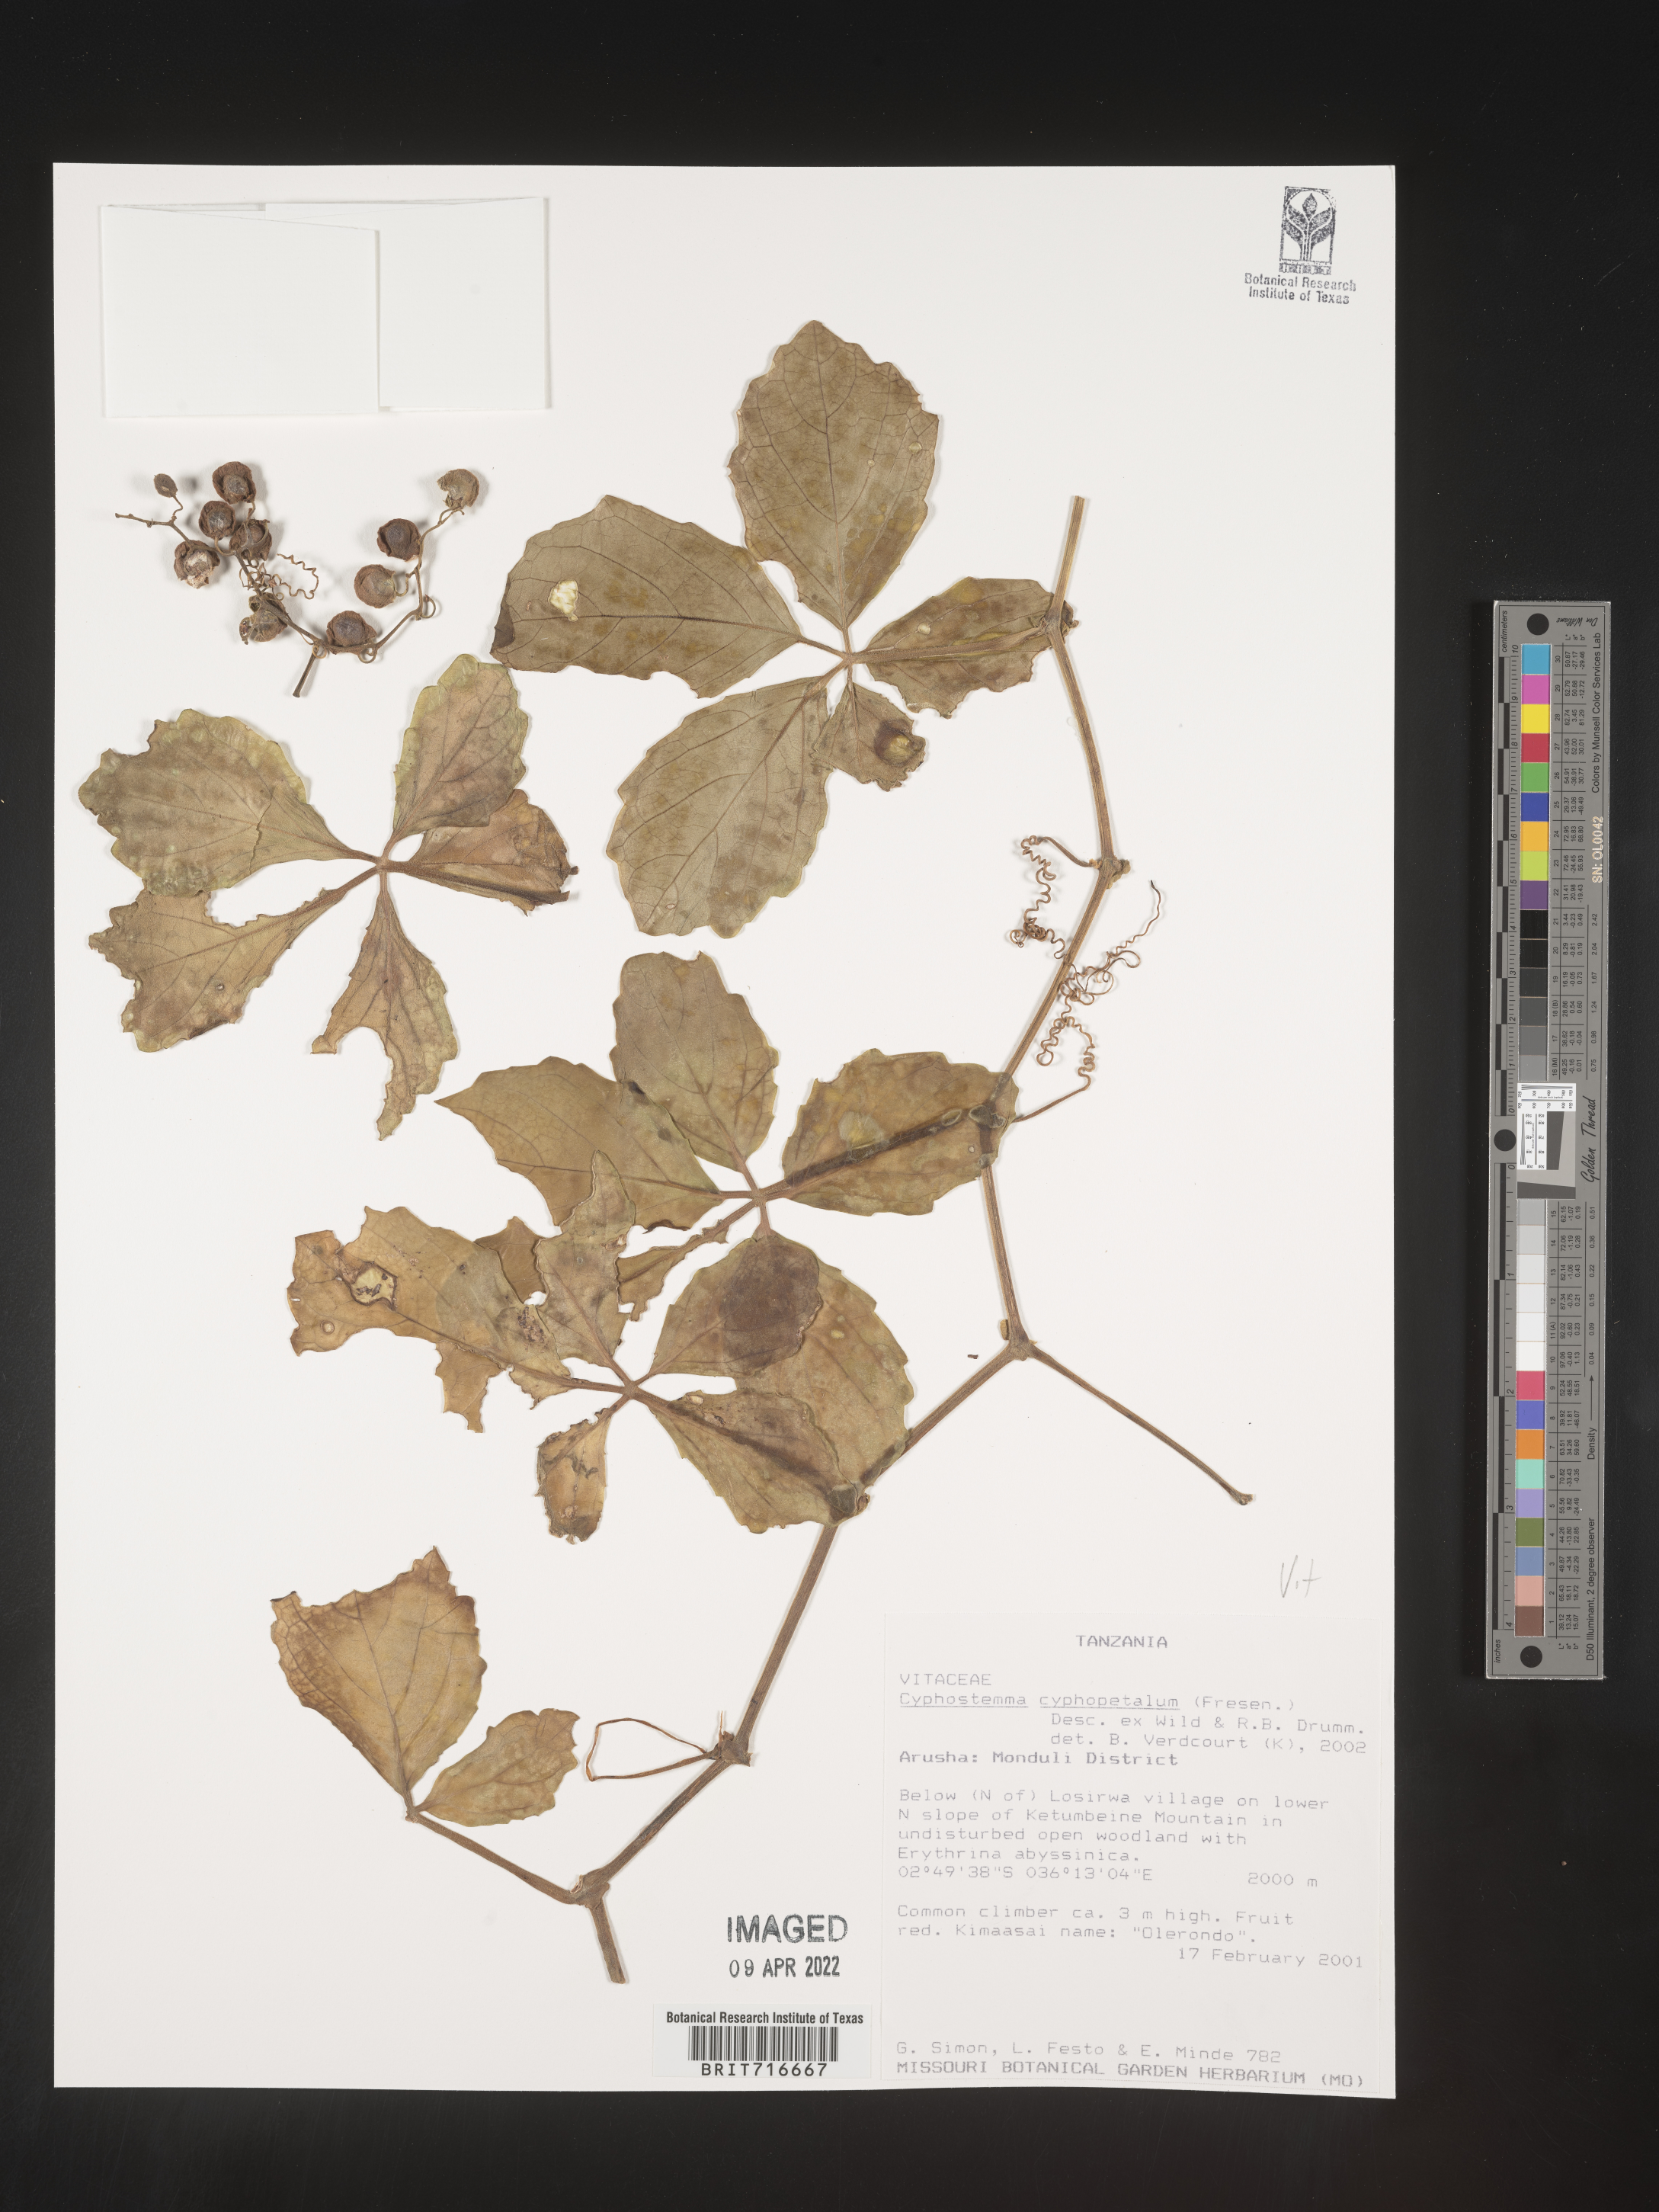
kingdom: Plantae
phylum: Tracheophyta
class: Magnoliopsida
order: Vitales
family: Vitaceae
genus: Cyphostemma
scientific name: Cyphostemma
